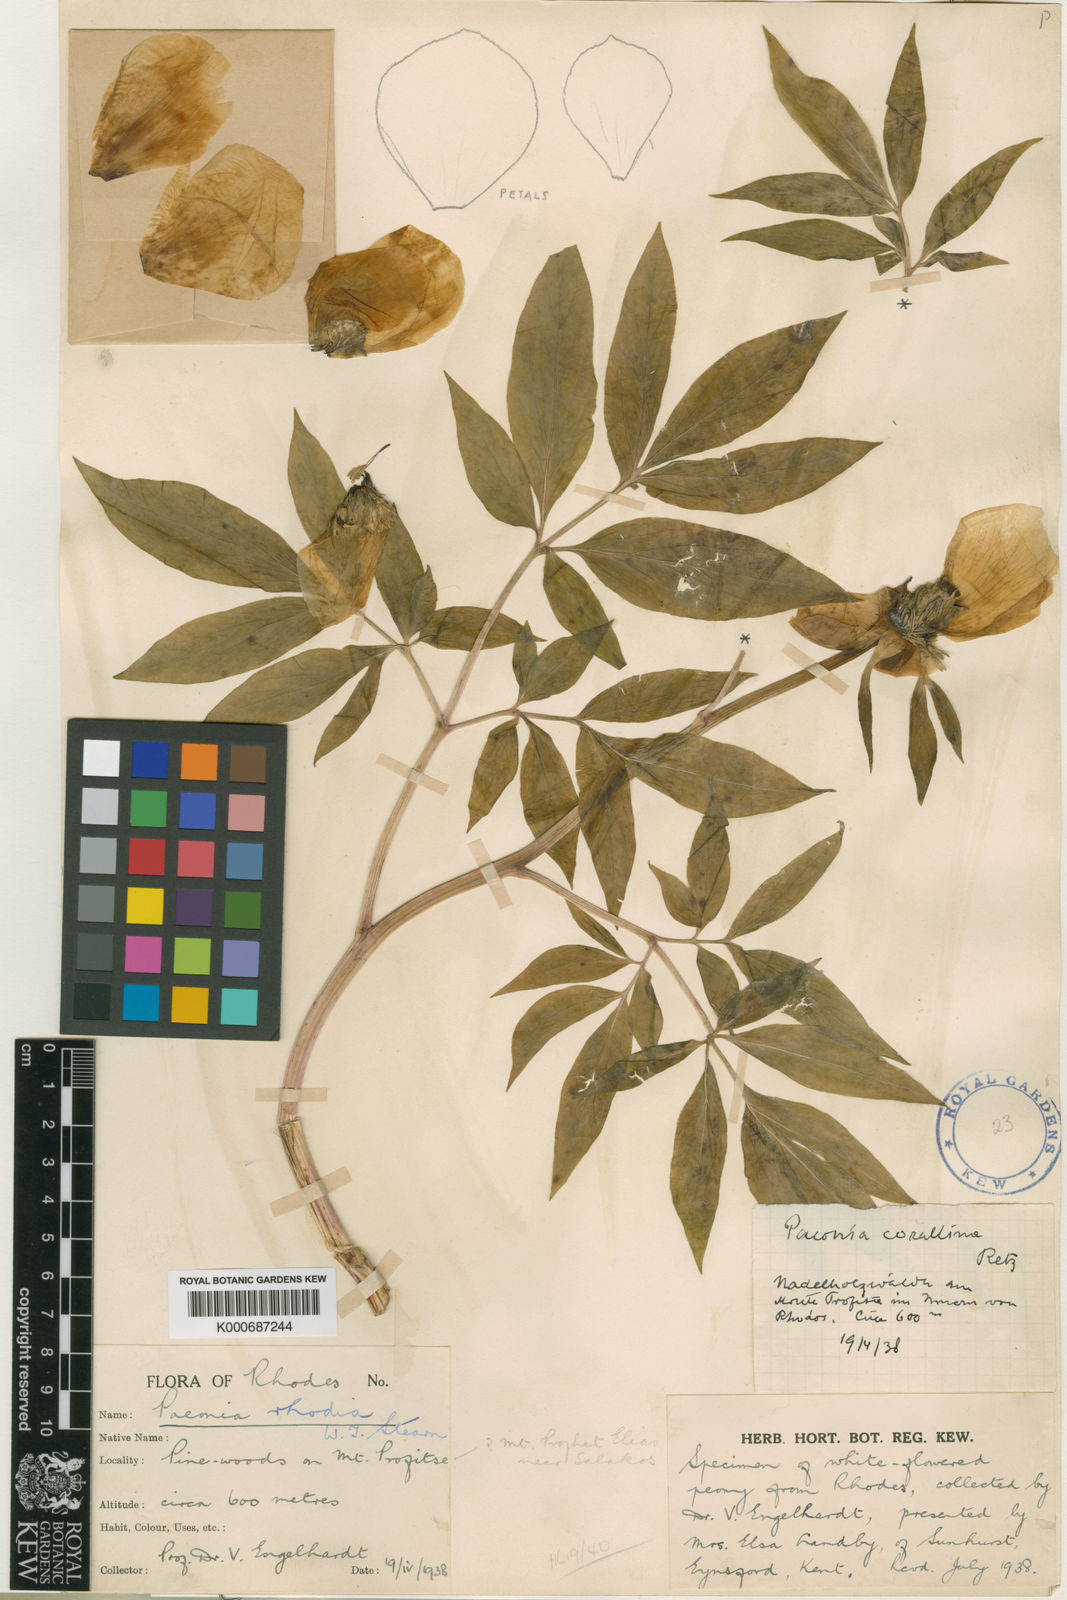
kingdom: Plantae
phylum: Tracheophyta
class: Magnoliopsida
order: Saxifragales
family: Paeoniaceae
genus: Paeonia
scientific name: Paeonia clusii
